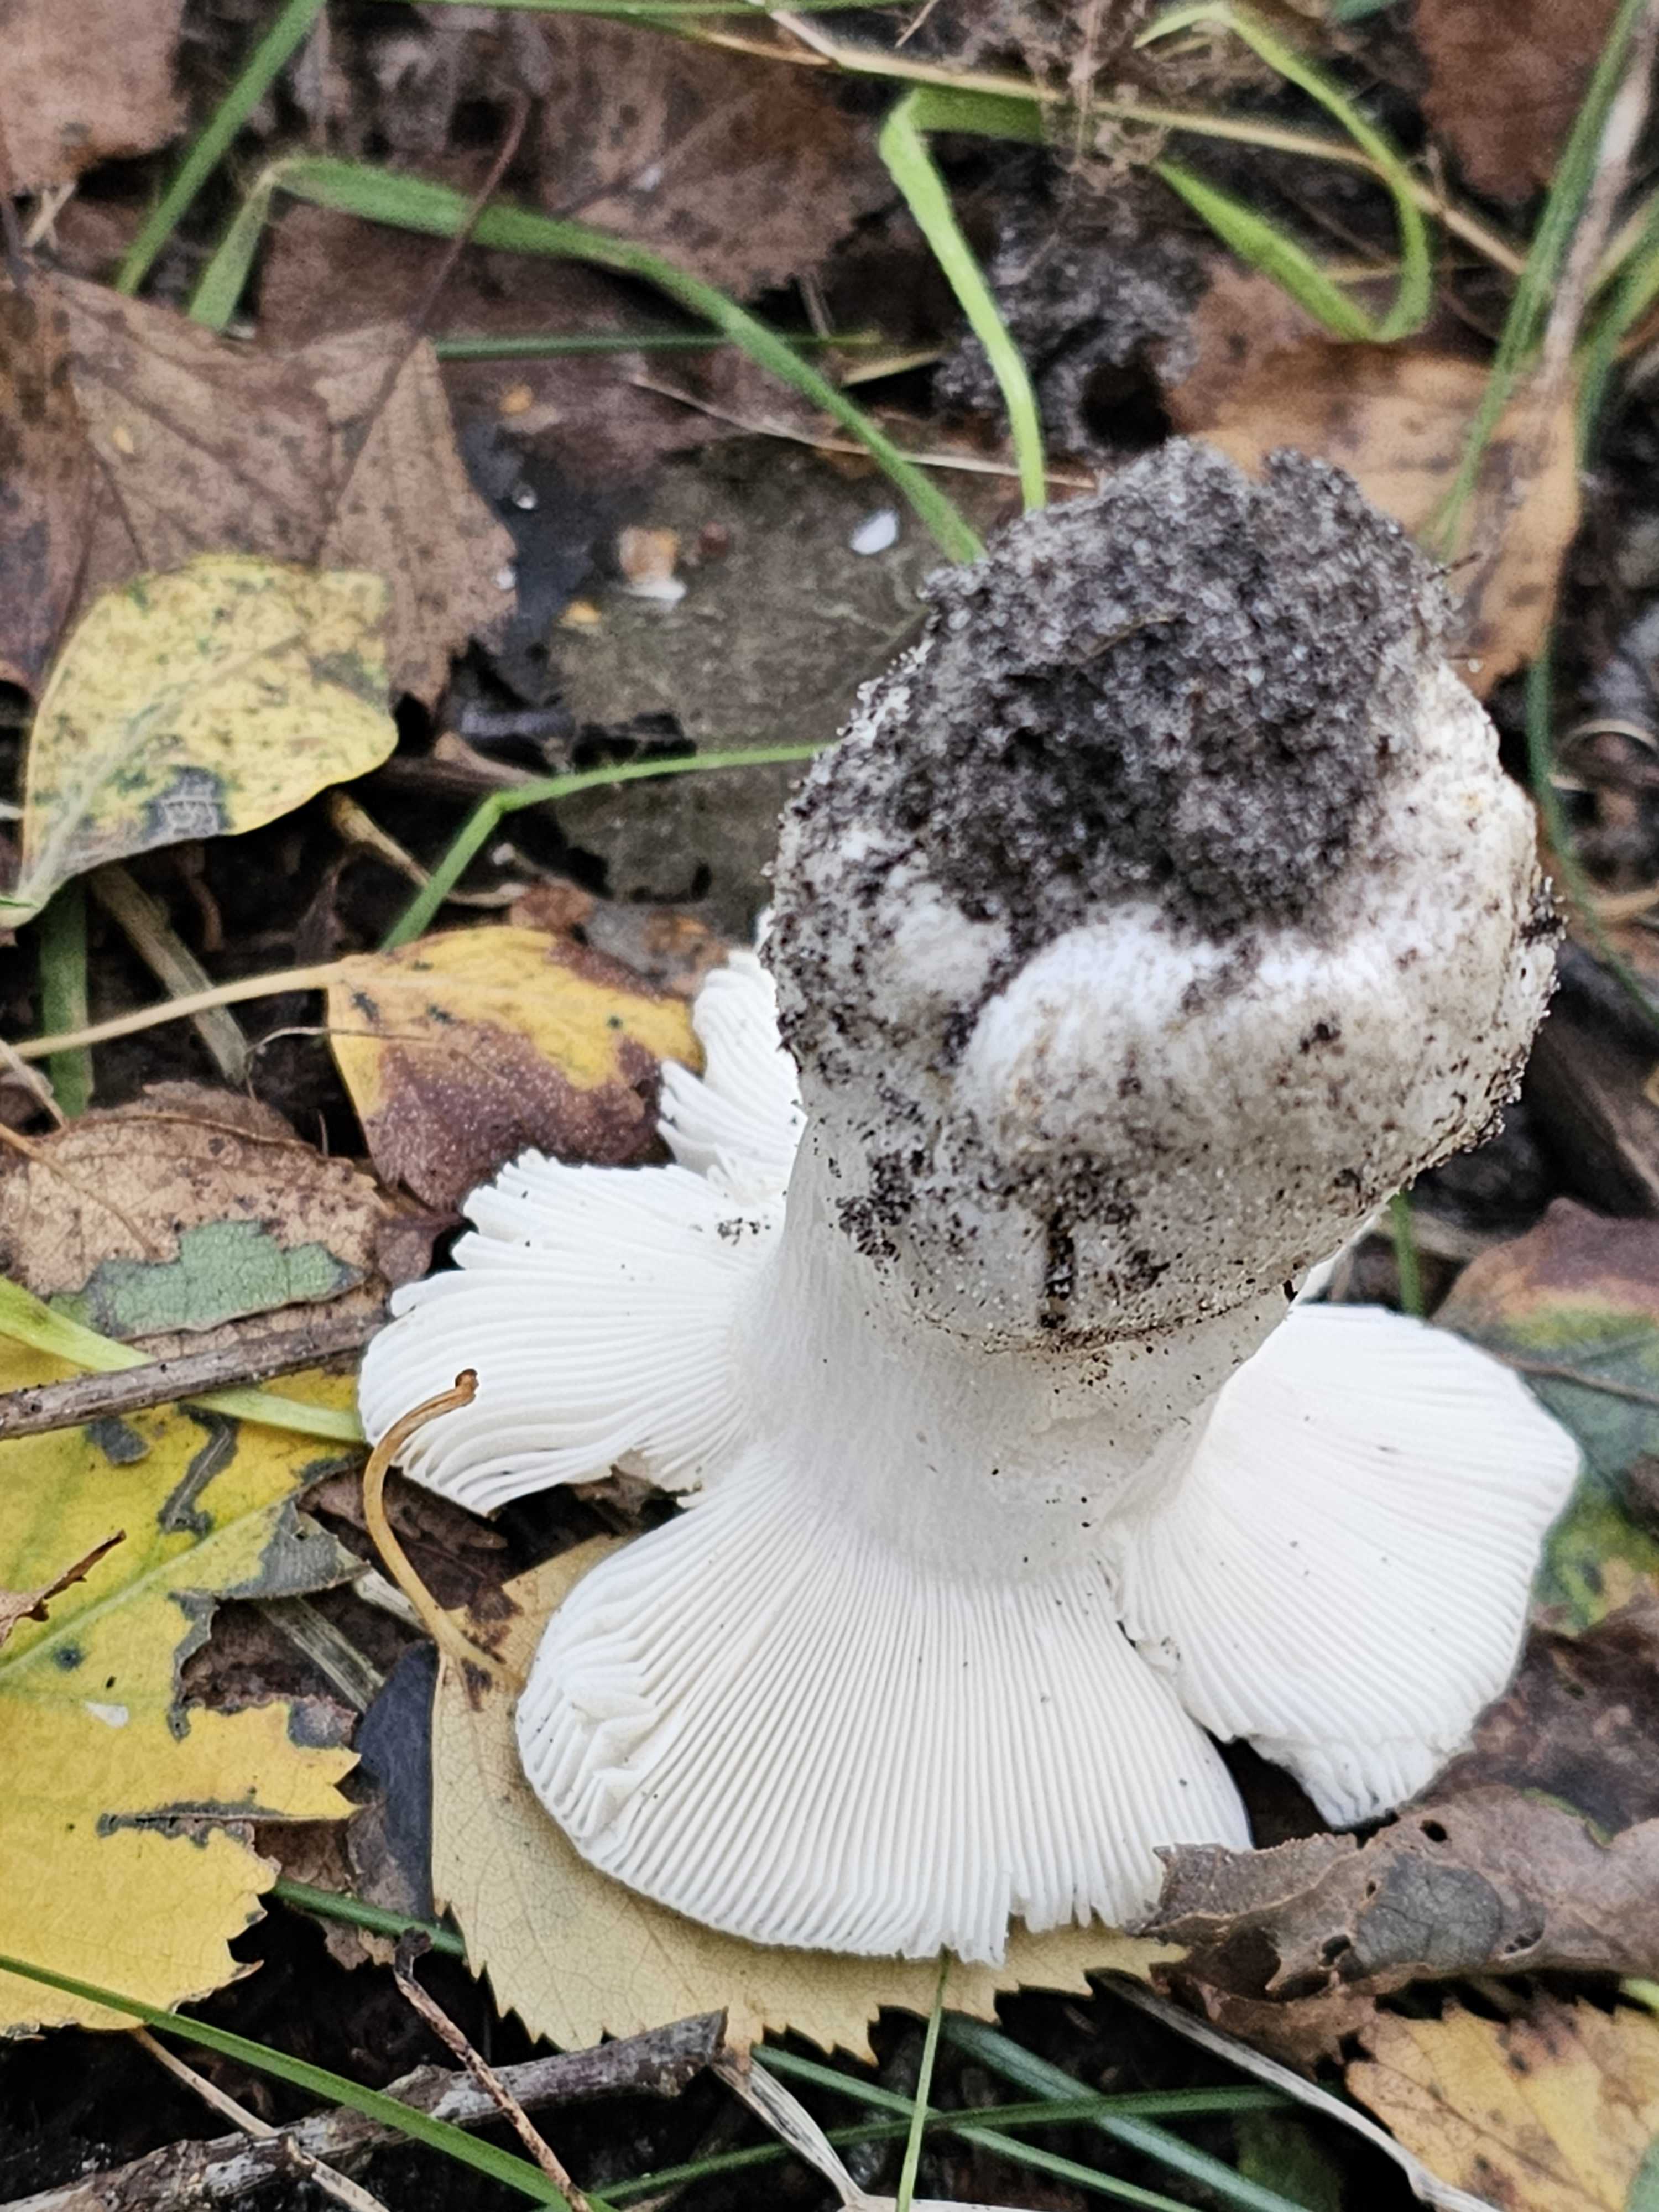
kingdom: Fungi
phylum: Basidiomycota
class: Agaricomycetes
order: Russulales
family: Russulaceae
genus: Russula
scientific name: Russula aeruginea
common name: græsgrøn skørhat
